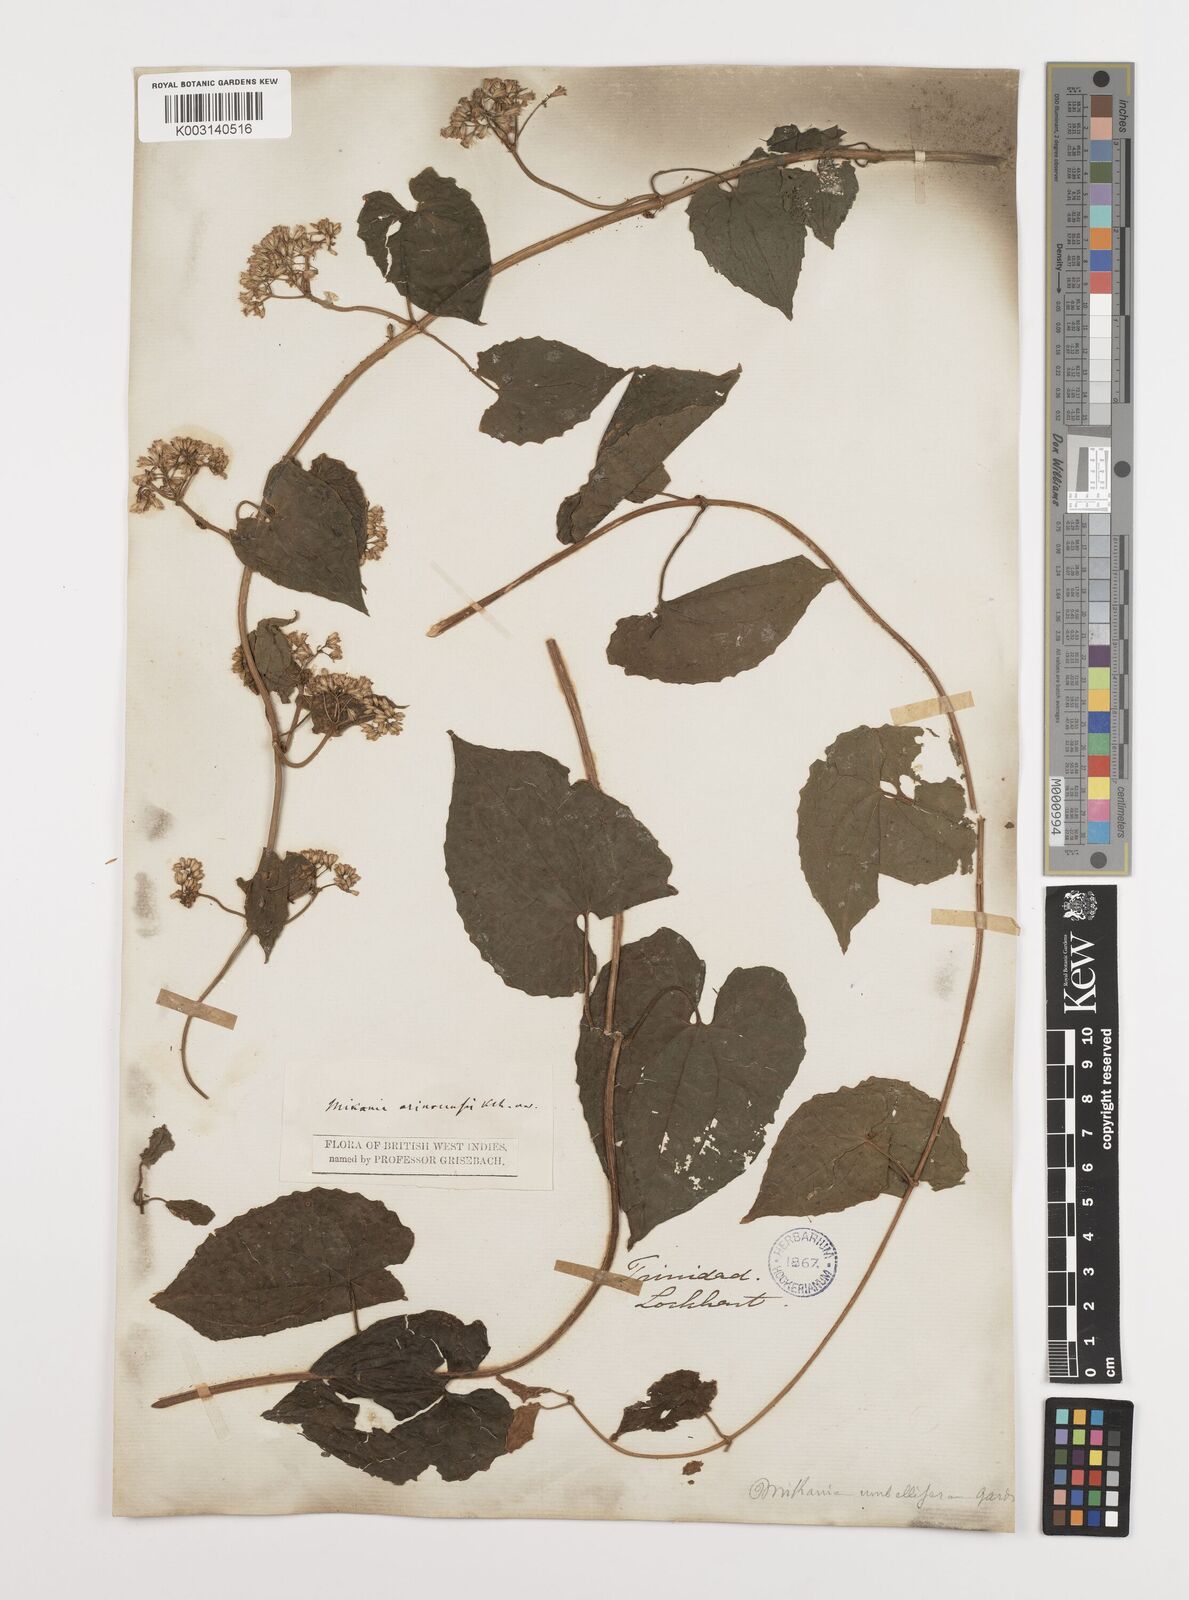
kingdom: Plantae
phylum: Tracheophyta
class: Magnoliopsida
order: Asterales
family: Asteraceae
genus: Mikania
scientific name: Mikania micrantha
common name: Mile-a-minute
